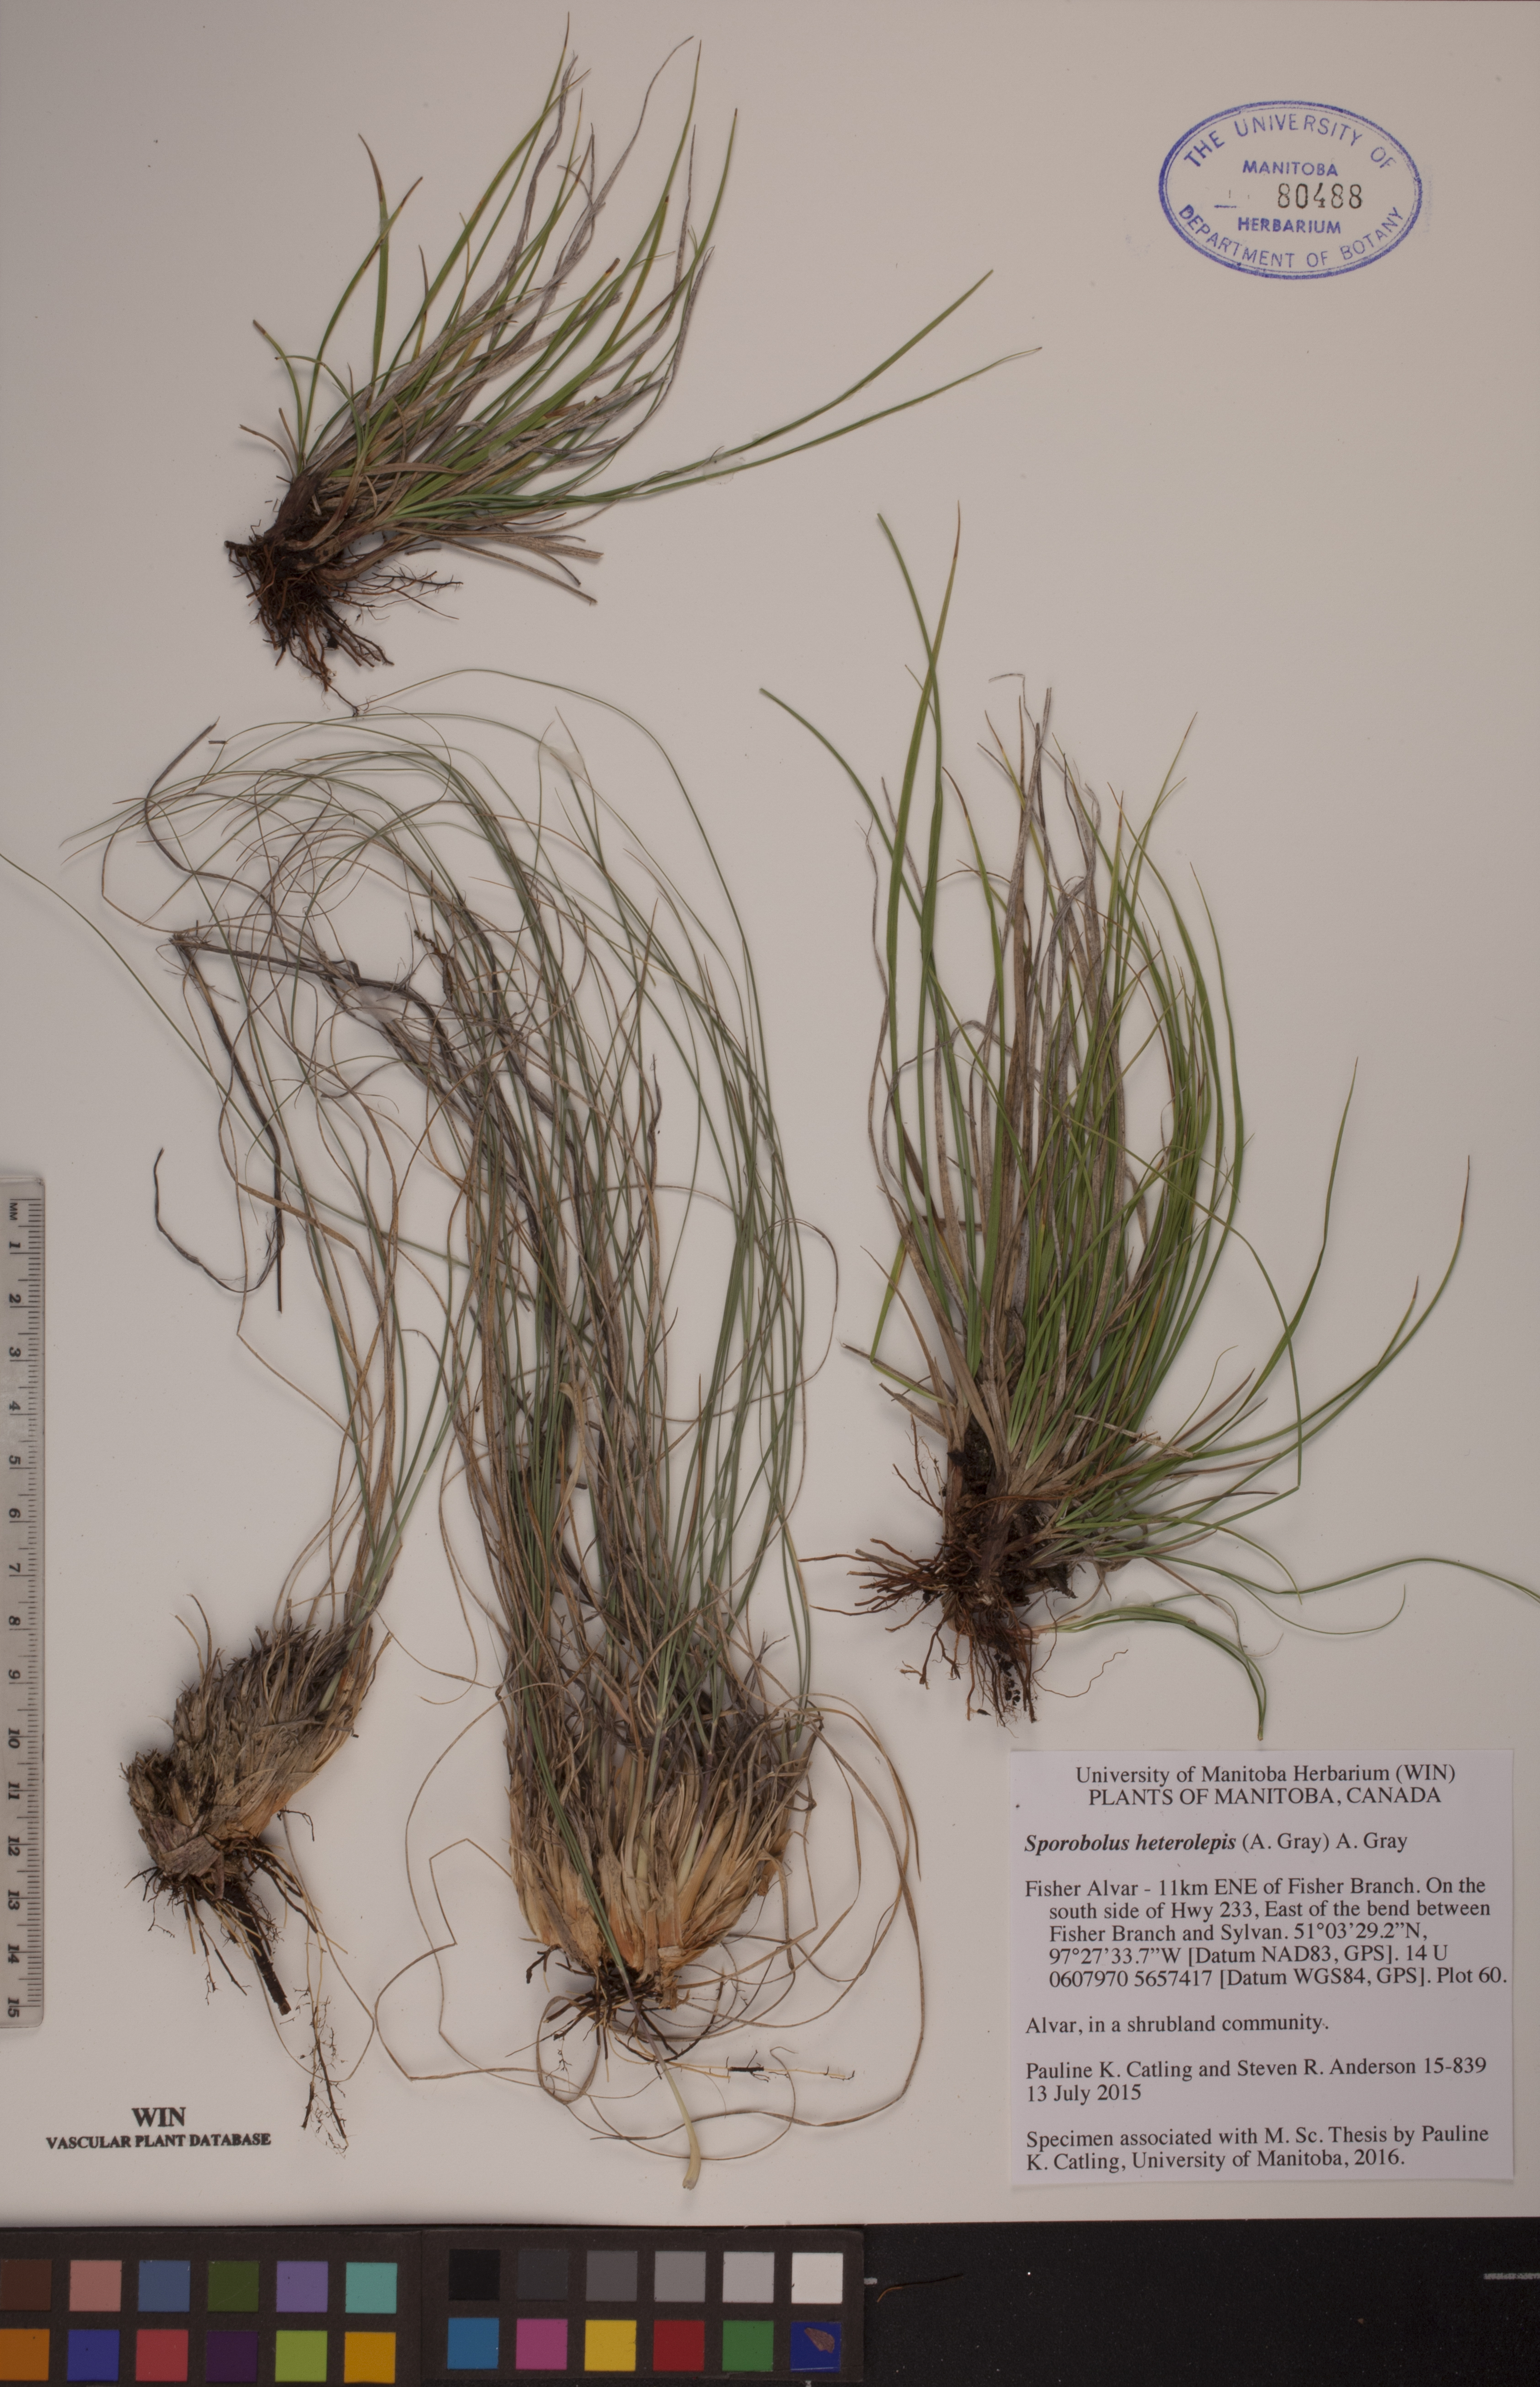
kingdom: Plantae
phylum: Tracheophyta
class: Liliopsida
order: Poales
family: Poaceae
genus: Sporobolus
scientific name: Sporobolus heterolepis
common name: Prairie dropseed
